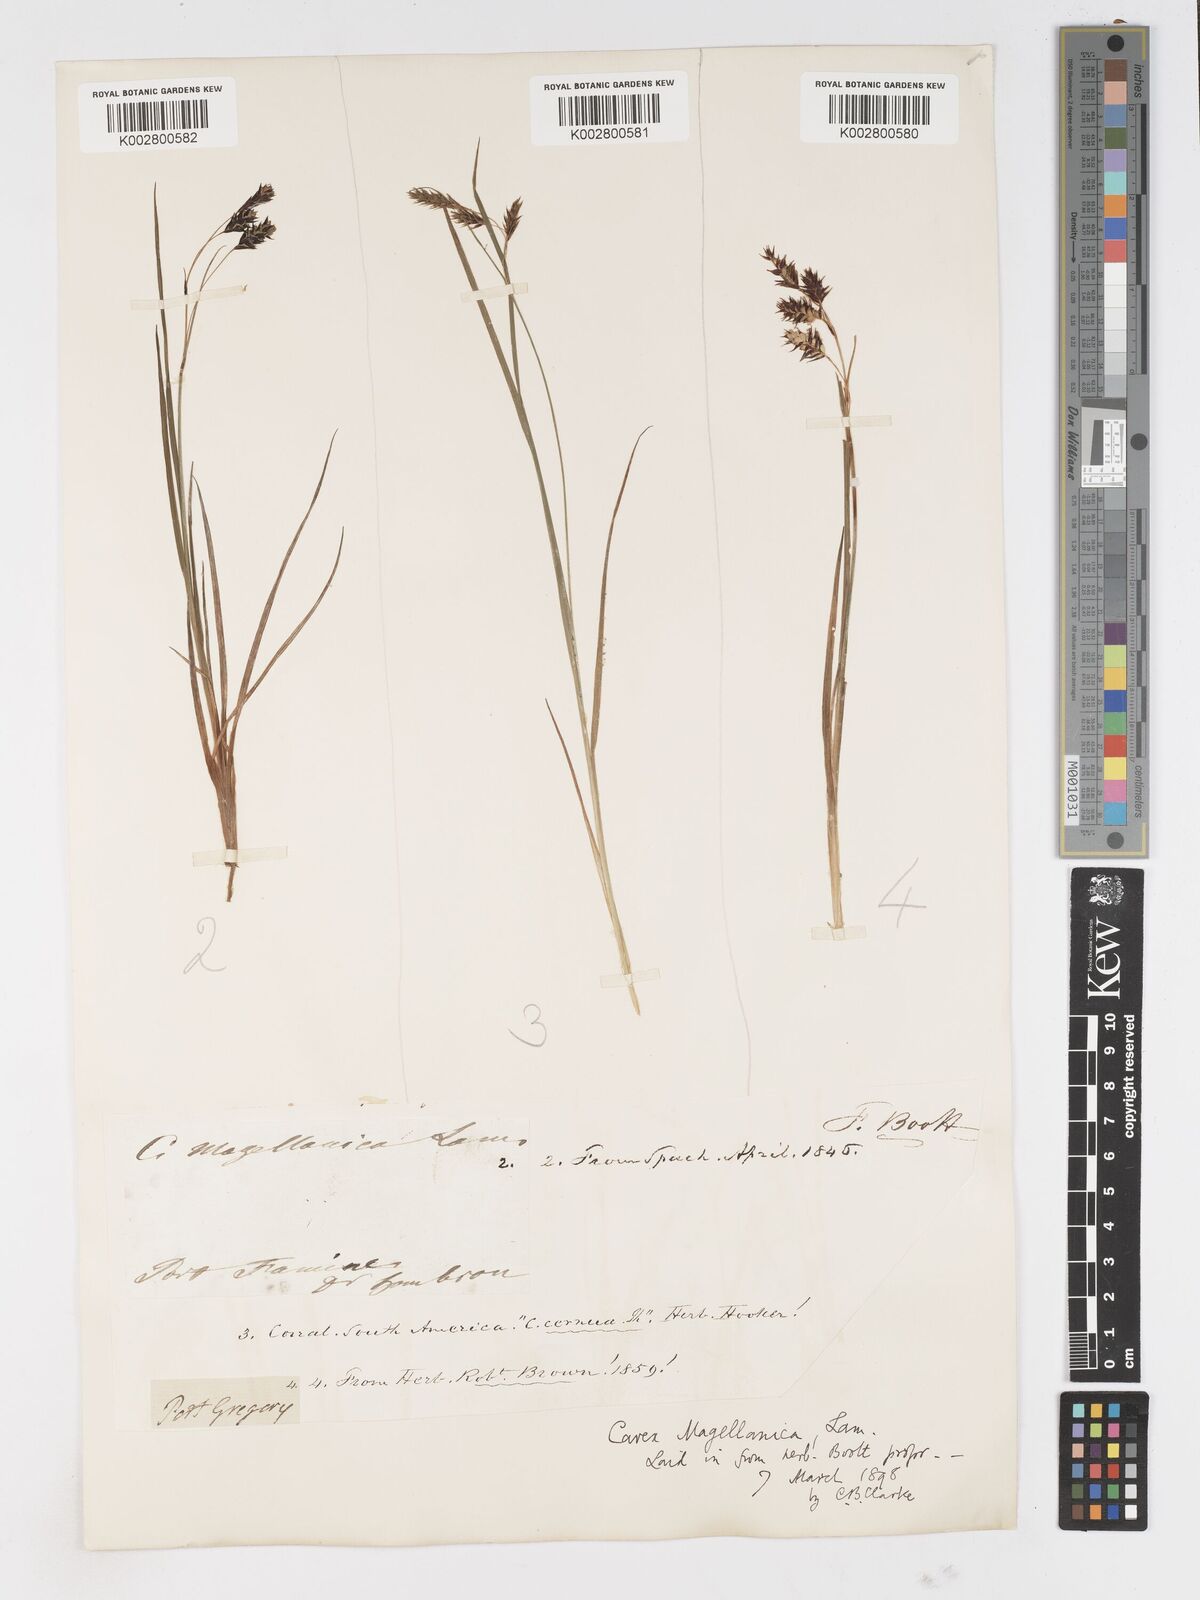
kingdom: Plantae
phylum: Tracheophyta
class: Liliopsida
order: Poales
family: Cyperaceae
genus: Carex
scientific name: Carex magellanica
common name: Bog sedge
